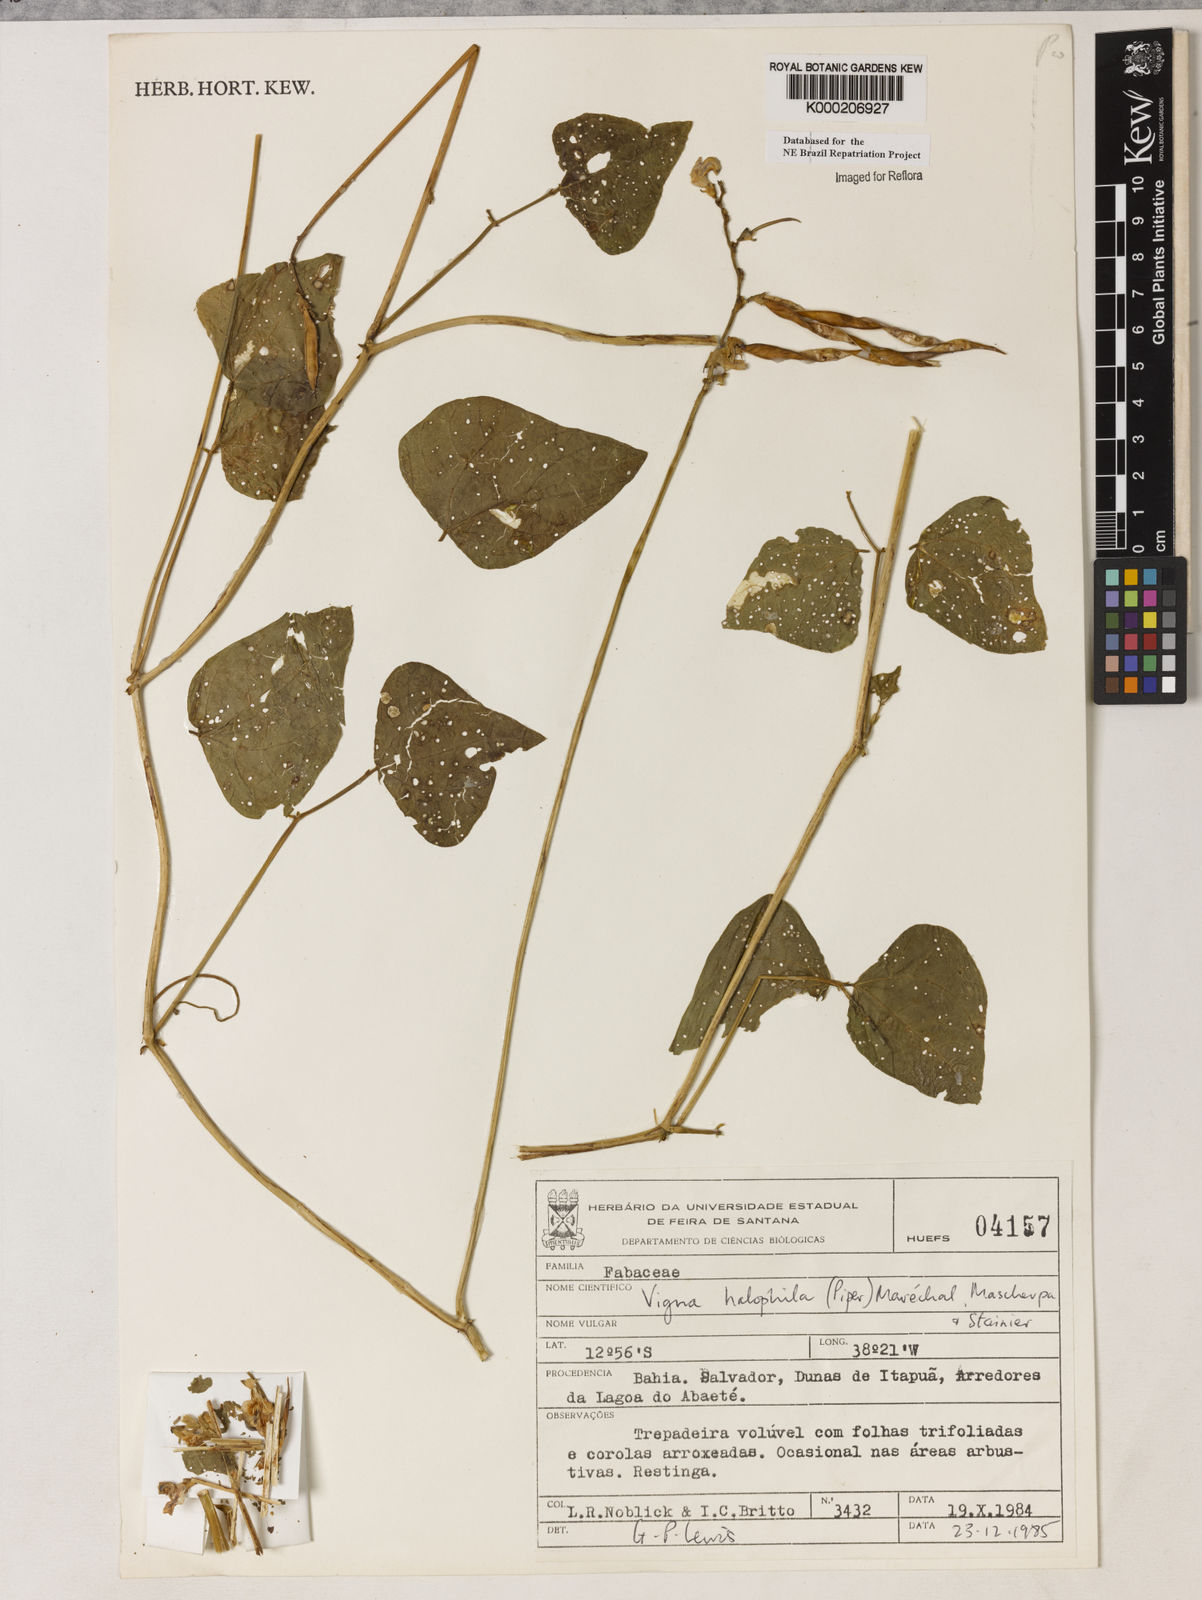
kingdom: Plantae
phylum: Tracheophyta
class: Magnoliopsida
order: Fabales
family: Fabaceae
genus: Vigna
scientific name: Vigna
